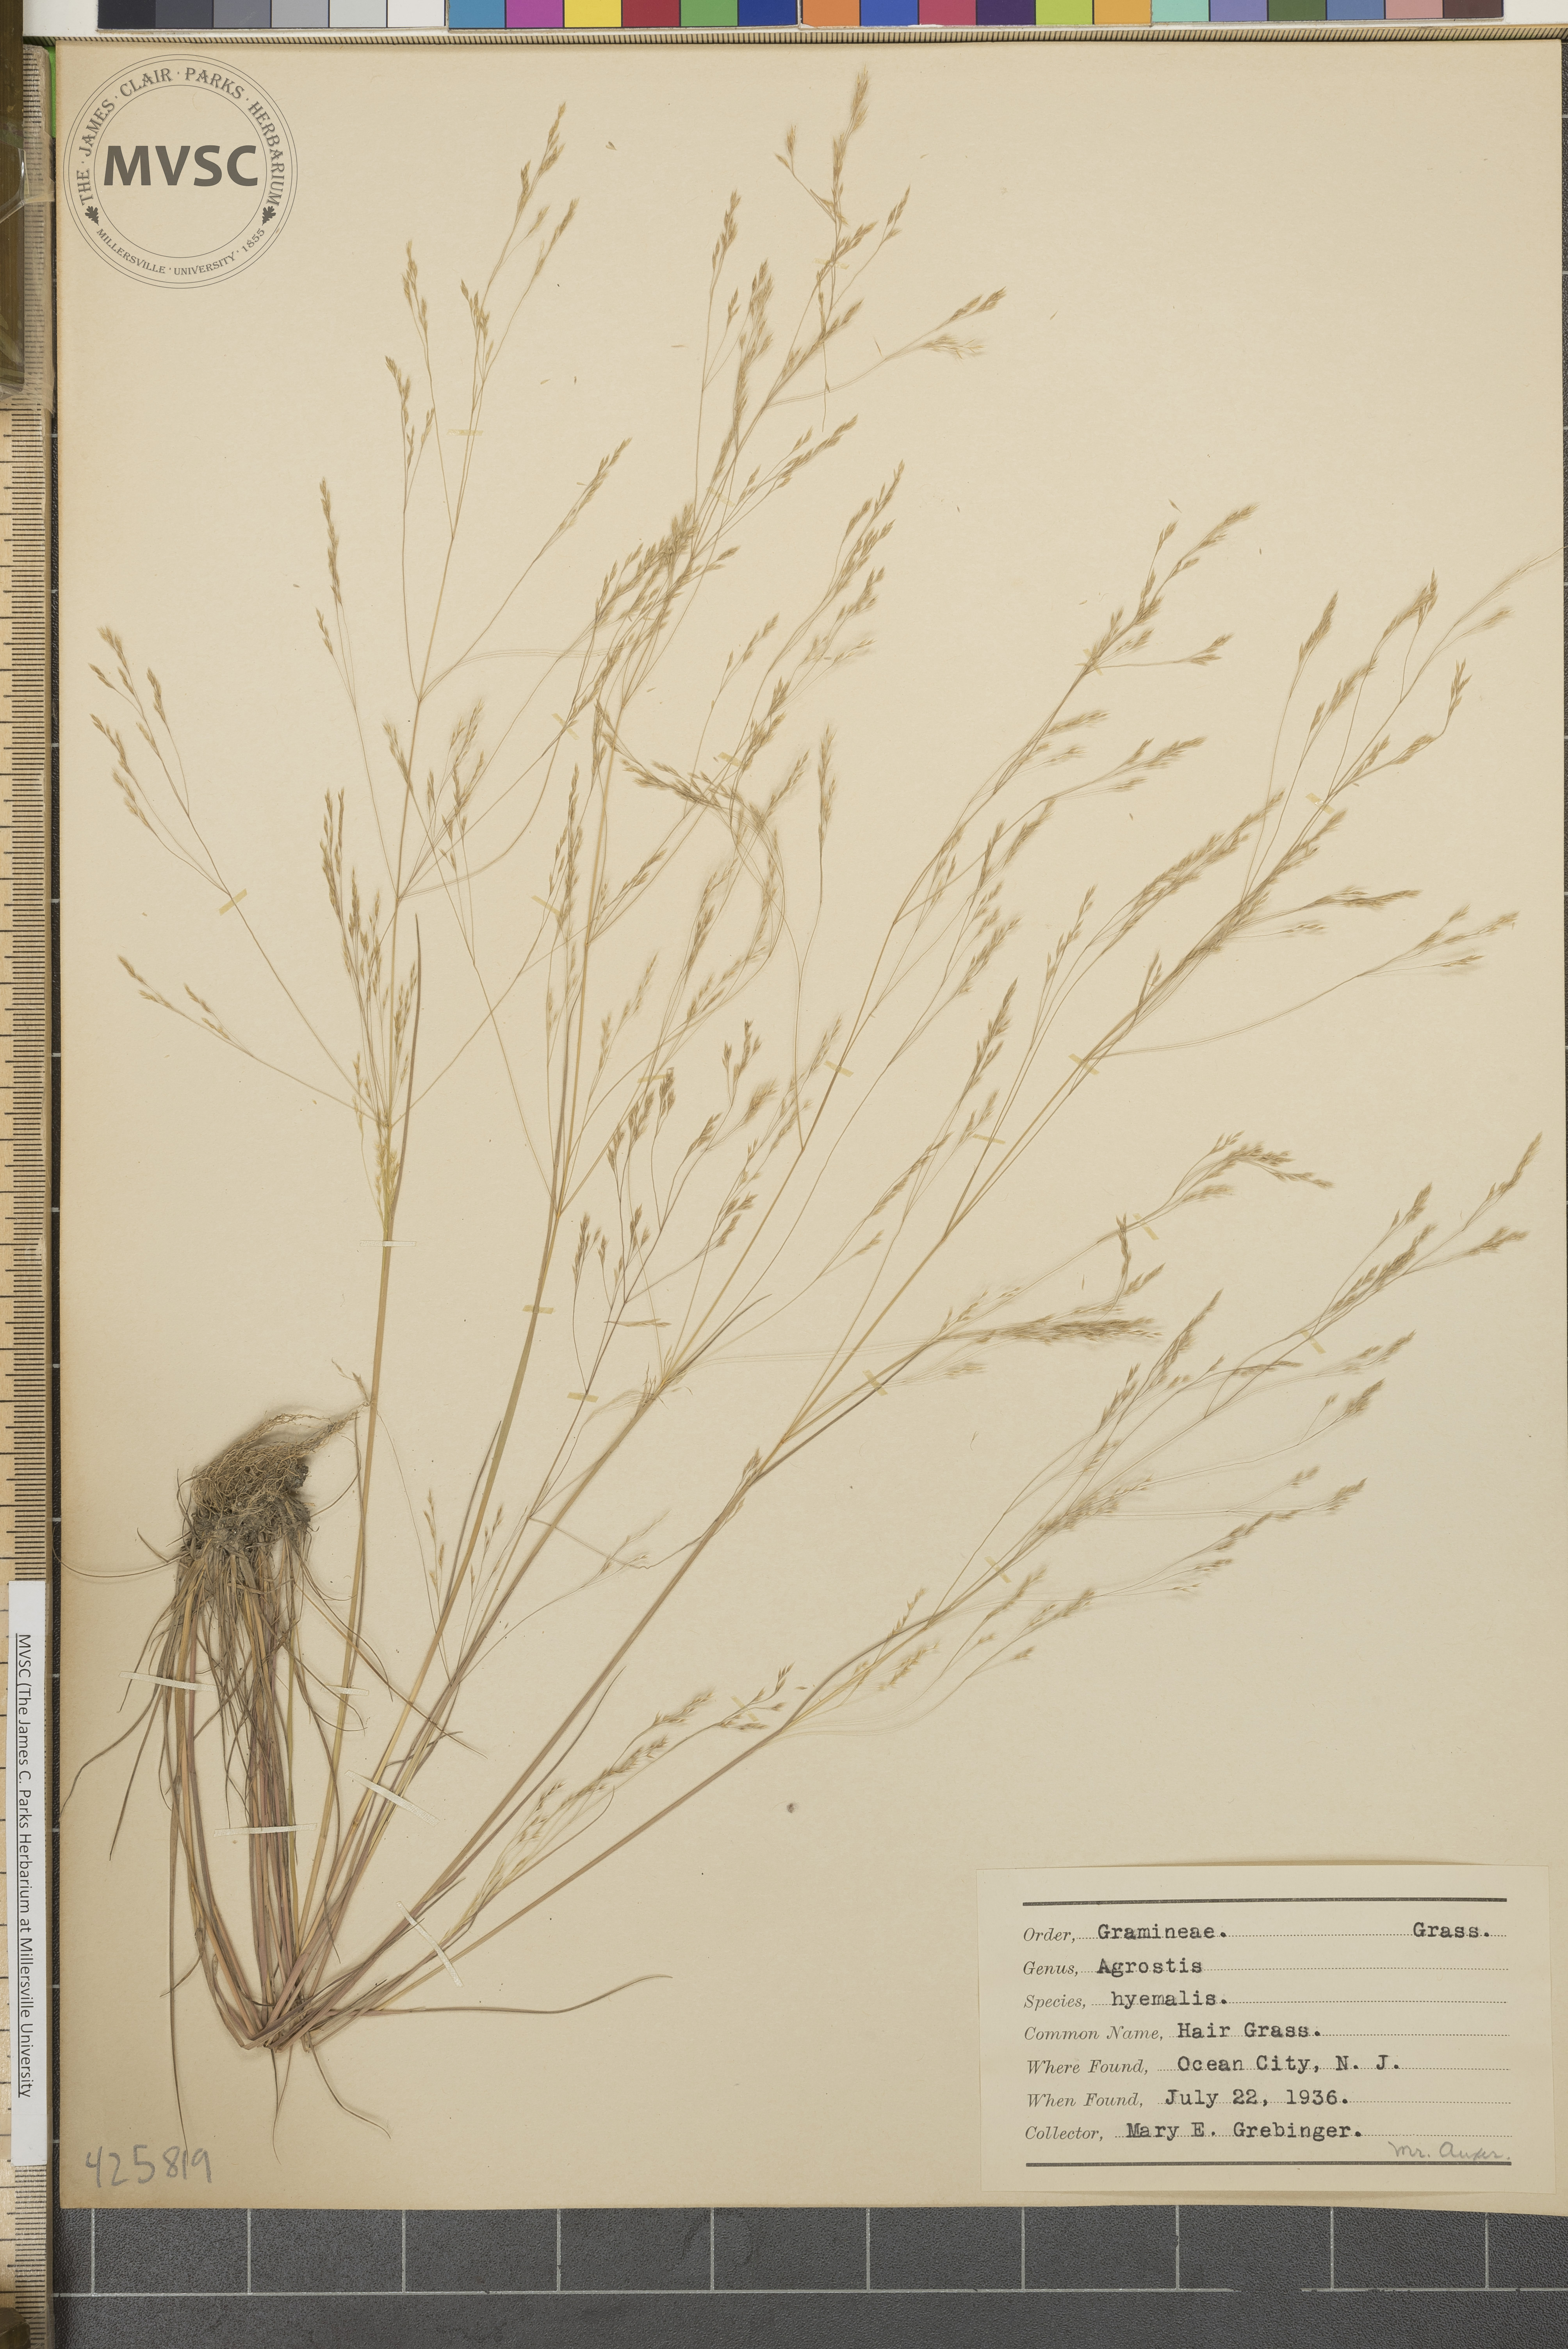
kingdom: Plantae
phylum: Tracheophyta
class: Liliopsida
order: Poales
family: Poaceae
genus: Agrostis
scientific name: Agrostis hyemalis
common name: Hair Grass
